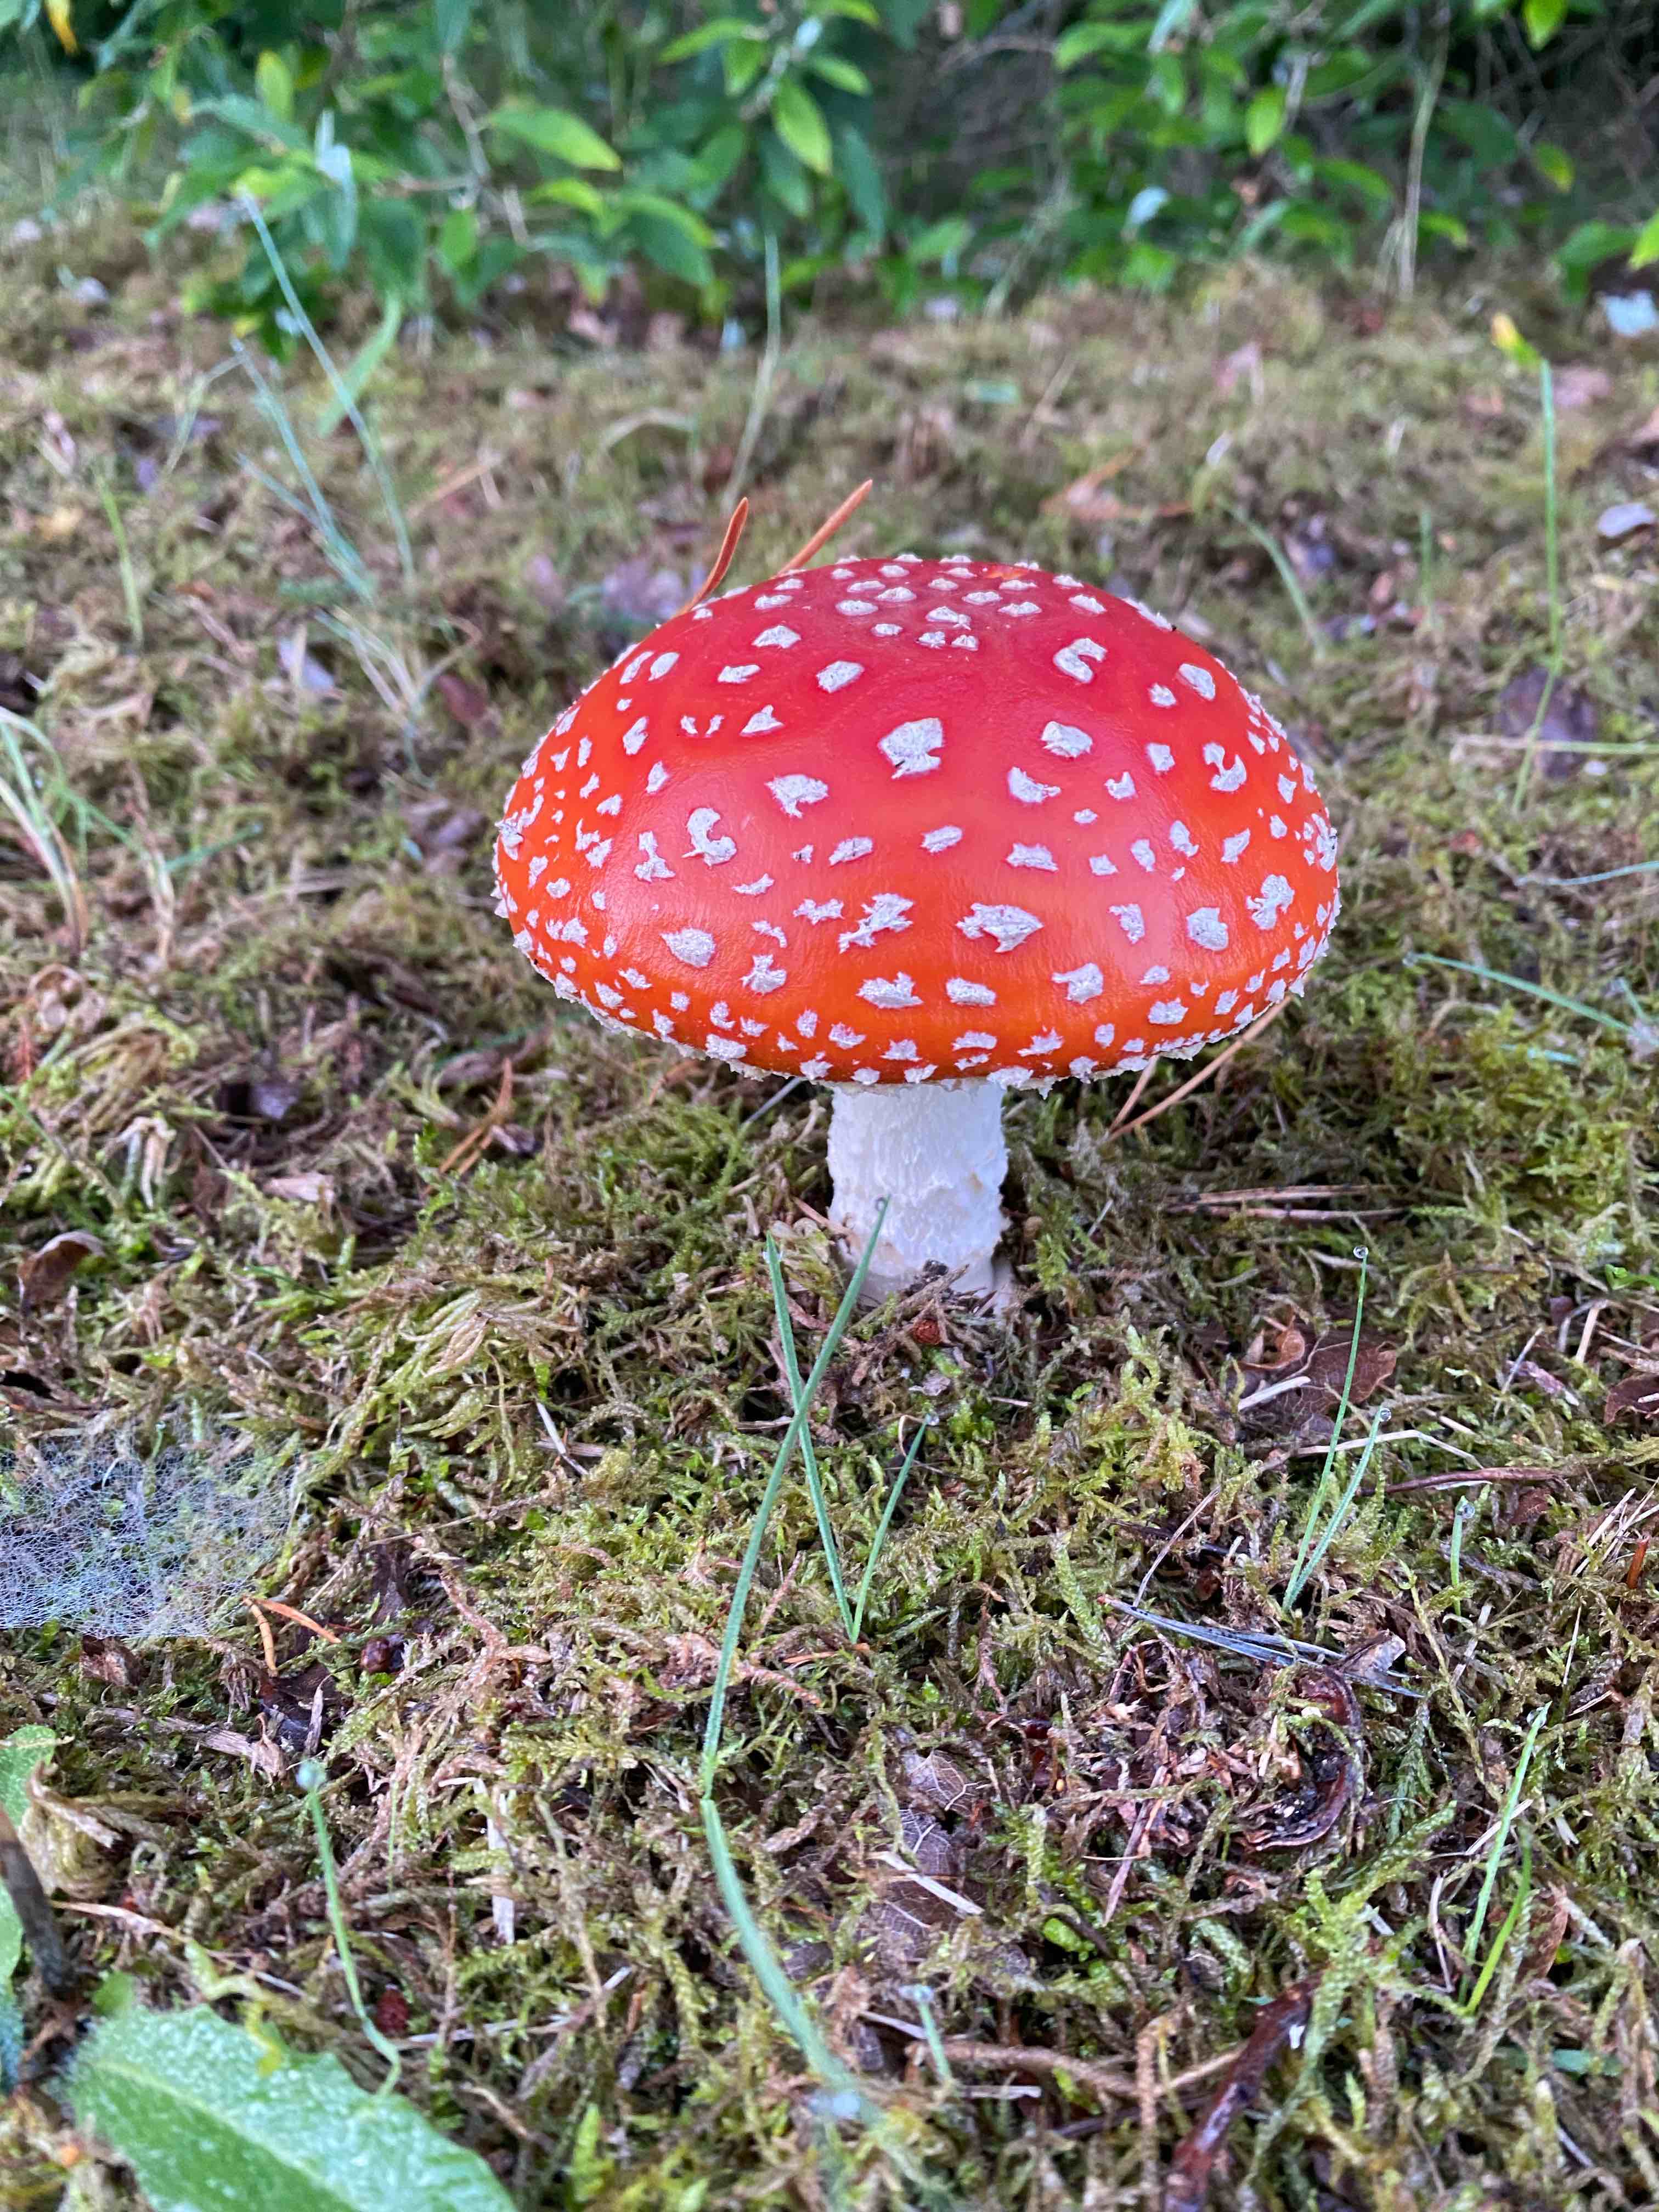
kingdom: Fungi
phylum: Basidiomycota
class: Agaricomycetes
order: Agaricales
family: Amanitaceae
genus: Amanita
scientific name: Amanita muscaria
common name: rød fluesvamp
